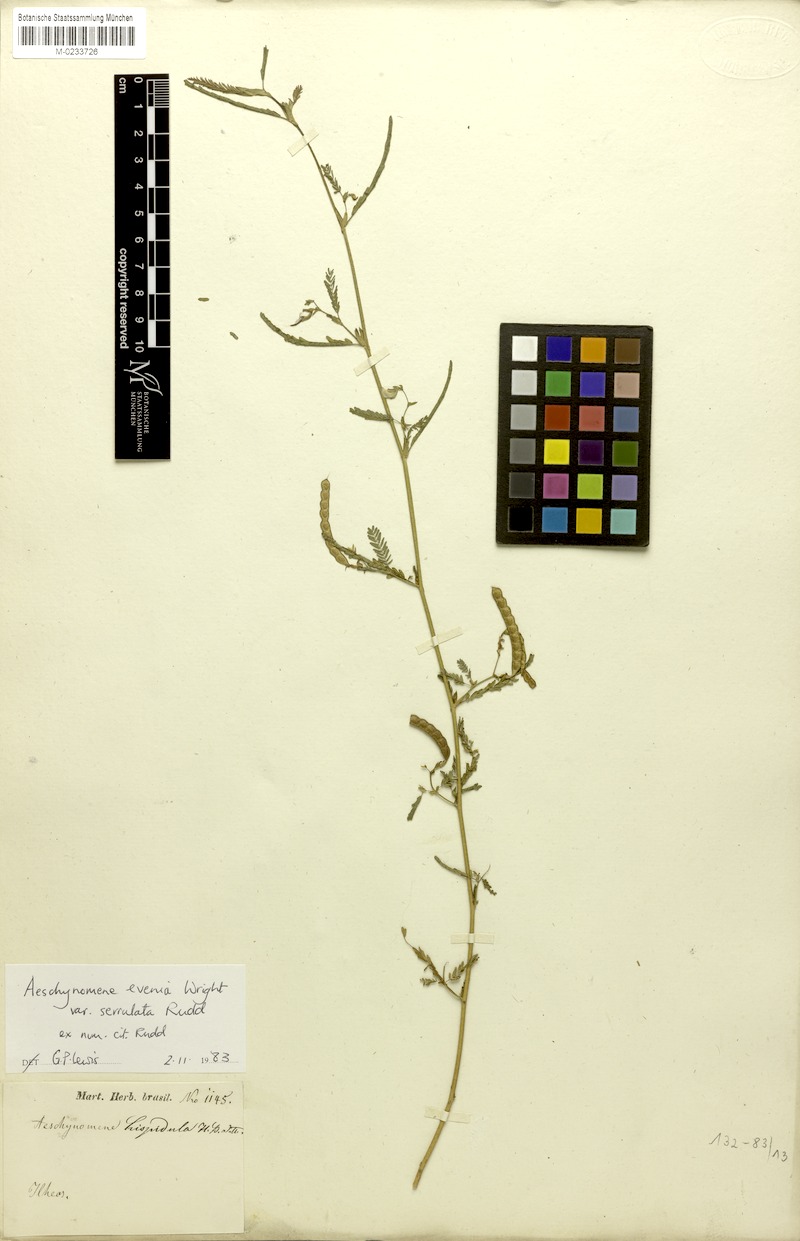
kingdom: Plantae
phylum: Tracheophyta
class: Magnoliopsida
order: Fabales
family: Fabaceae
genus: Aeschynomene
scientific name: Aeschynomene evenia
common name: Shrubby jointvetch
